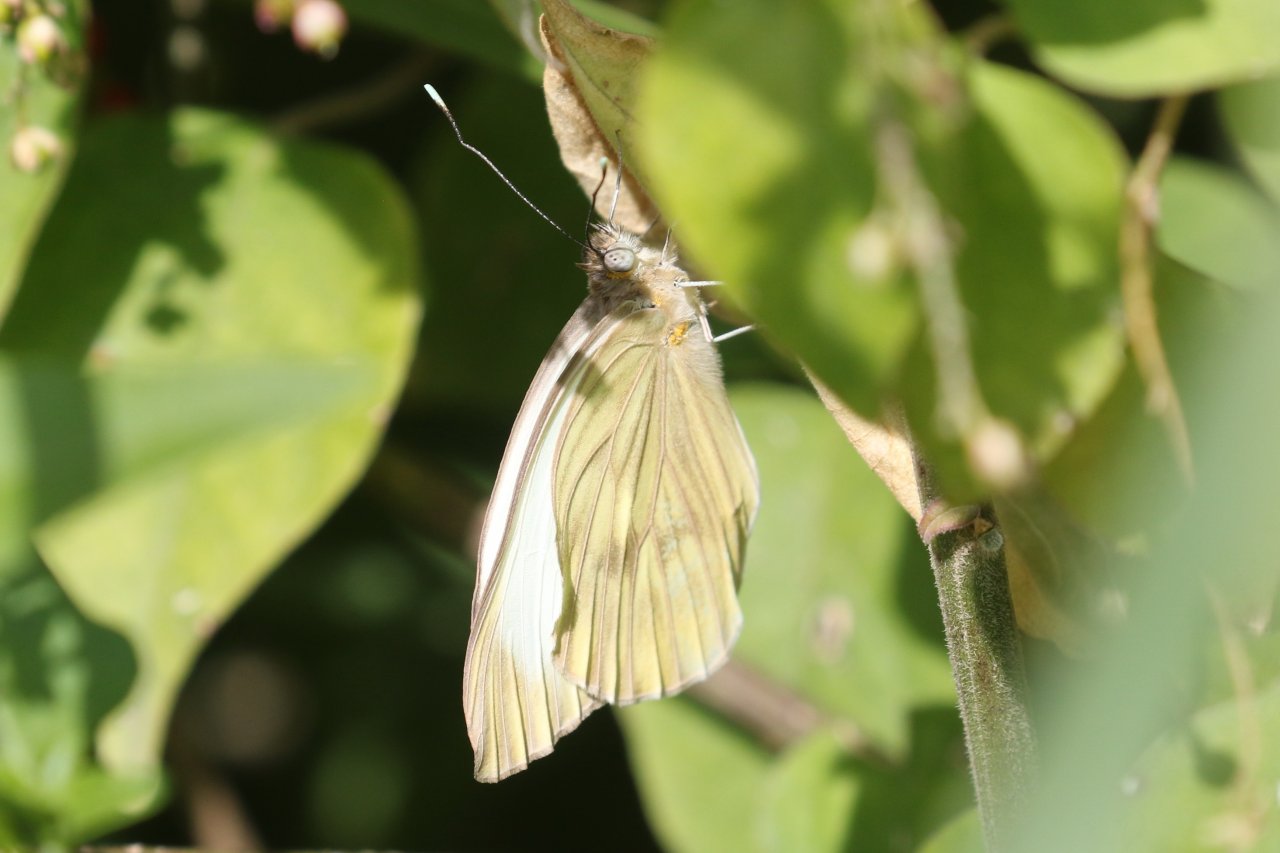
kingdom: Animalia
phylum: Arthropoda
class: Insecta
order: Lepidoptera
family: Pieridae
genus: Ascia
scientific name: Ascia monuste
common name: Great Southern White
